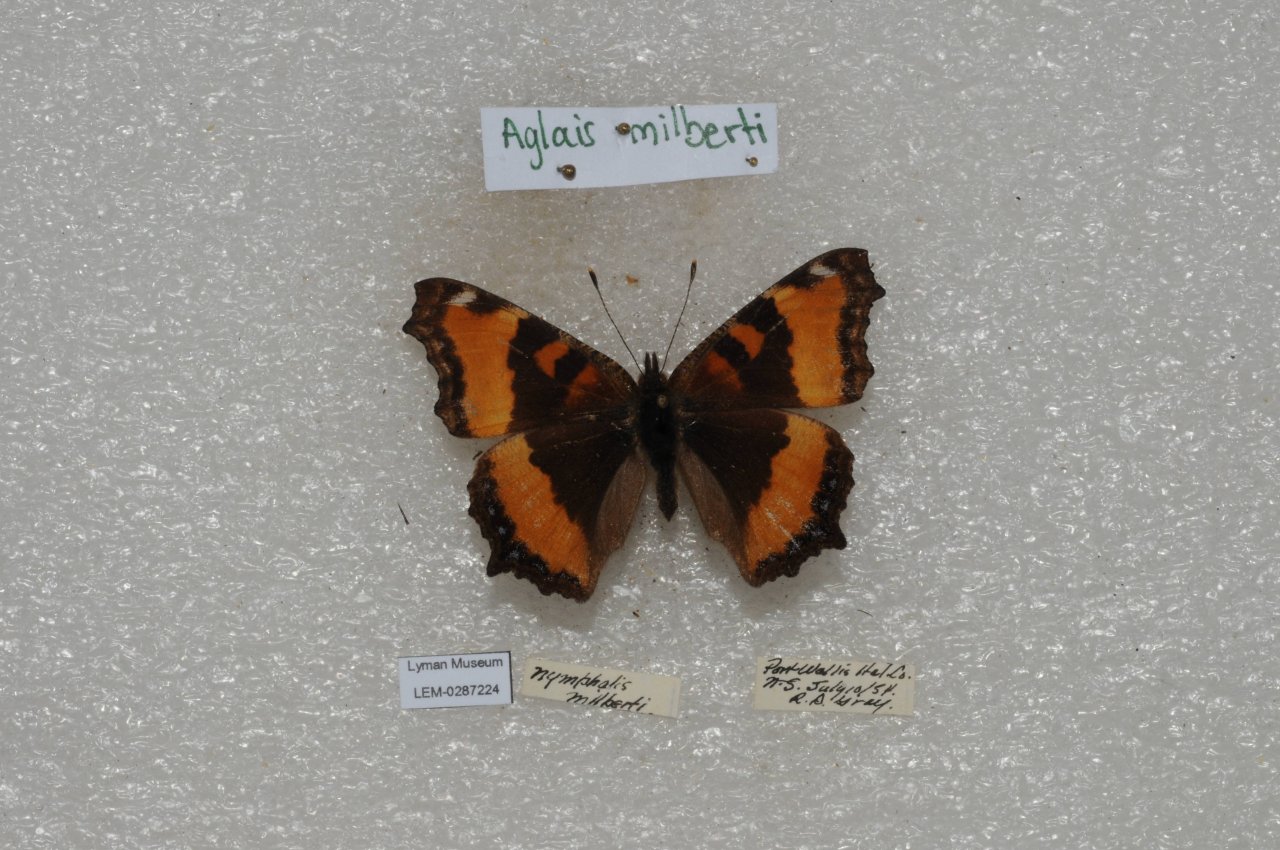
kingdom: Animalia
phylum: Arthropoda
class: Insecta
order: Lepidoptera
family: Nymphalidae
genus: Aglais
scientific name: Aglais milberti
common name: Milbert's Tortoiseshell
